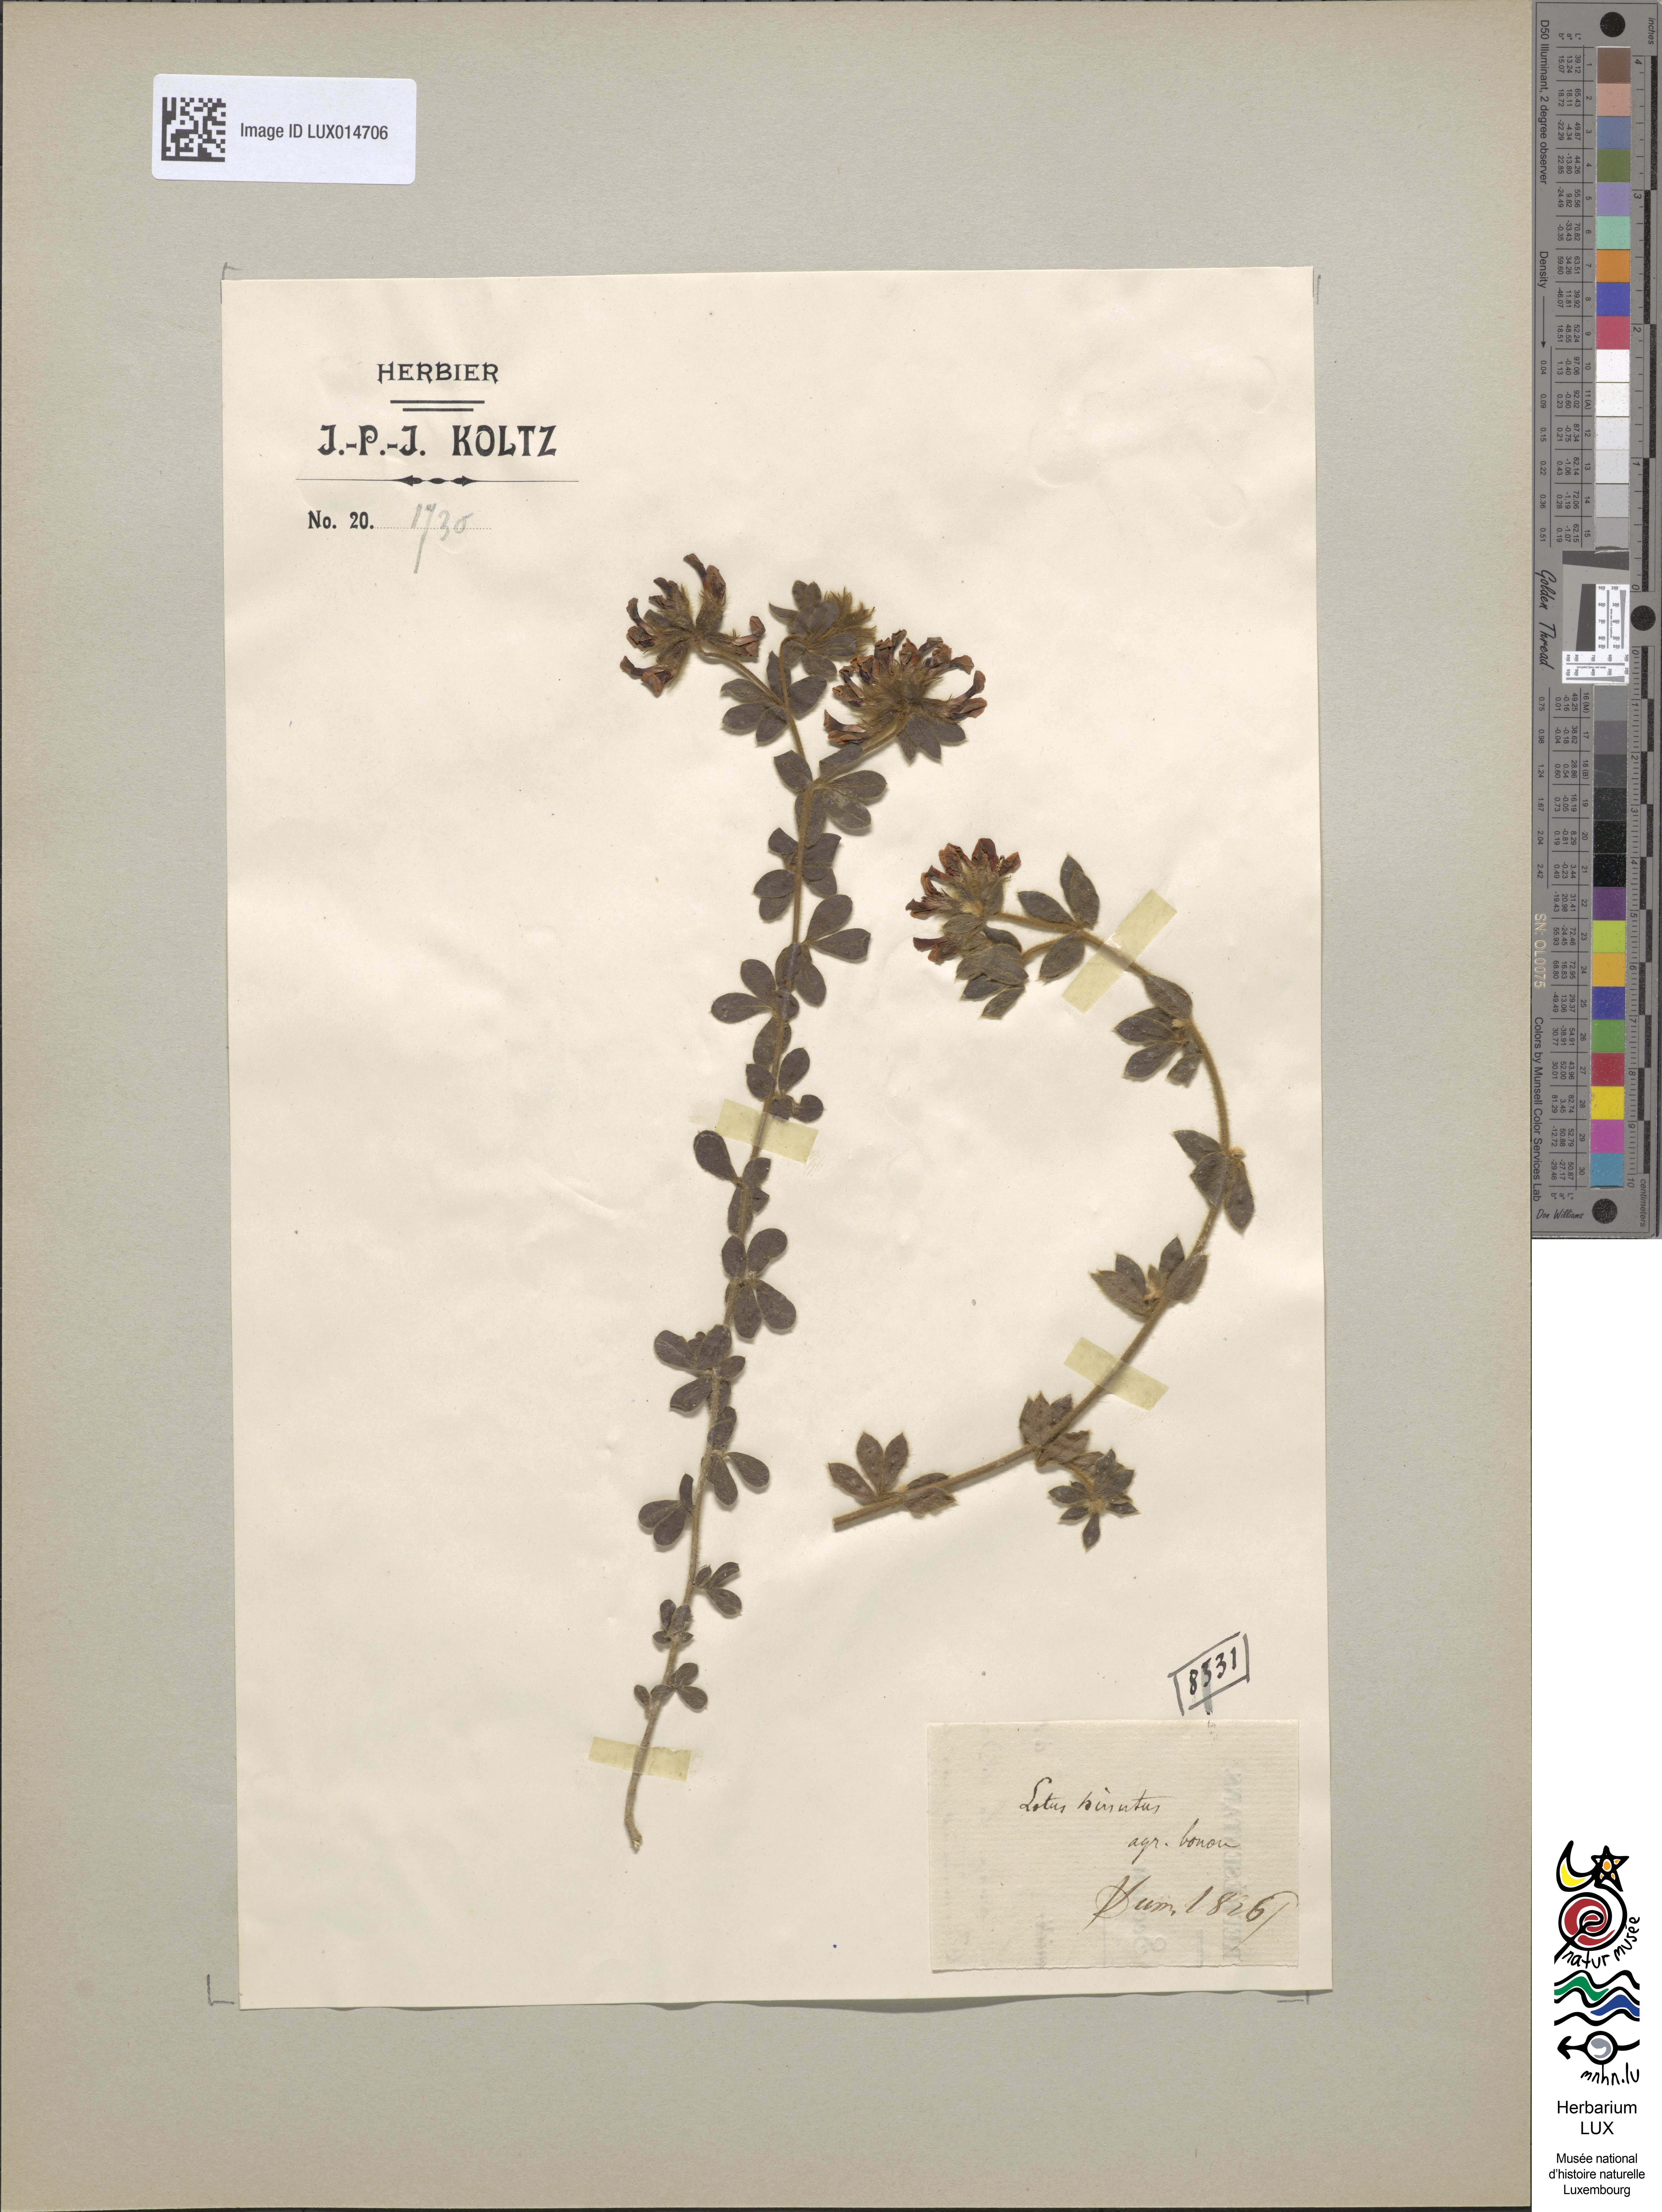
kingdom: Plantae
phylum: Tracheophyta
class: Magnoliopsida
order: Fabales
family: Fabaceae
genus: Lotus
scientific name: Lotus tenuis
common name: Narrow-leaved bird's-foot-trefoil
